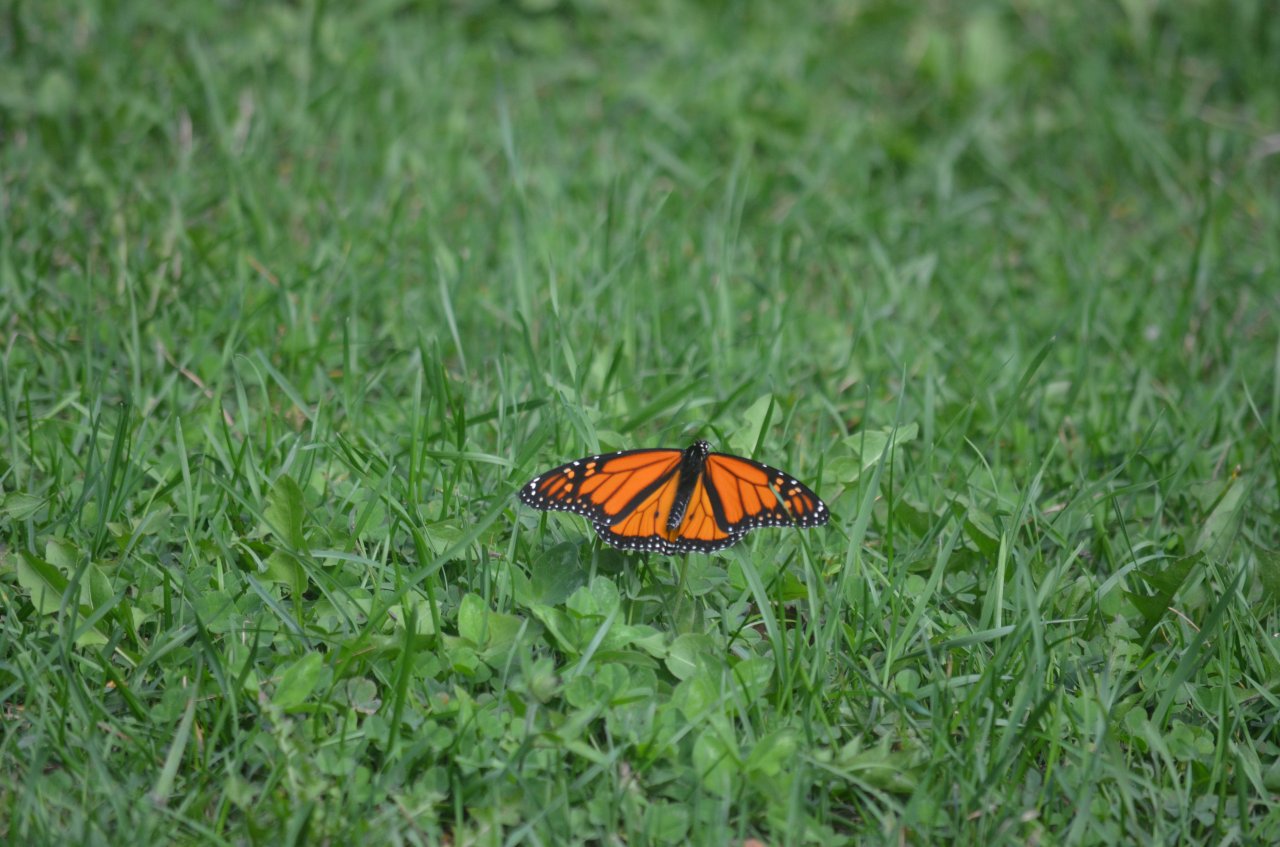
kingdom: Animalia
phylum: Arthropoda
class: Insecta
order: Lepidoptera
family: Nymphalidae
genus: Danaus
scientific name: Danaus plexippus
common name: Monarch
